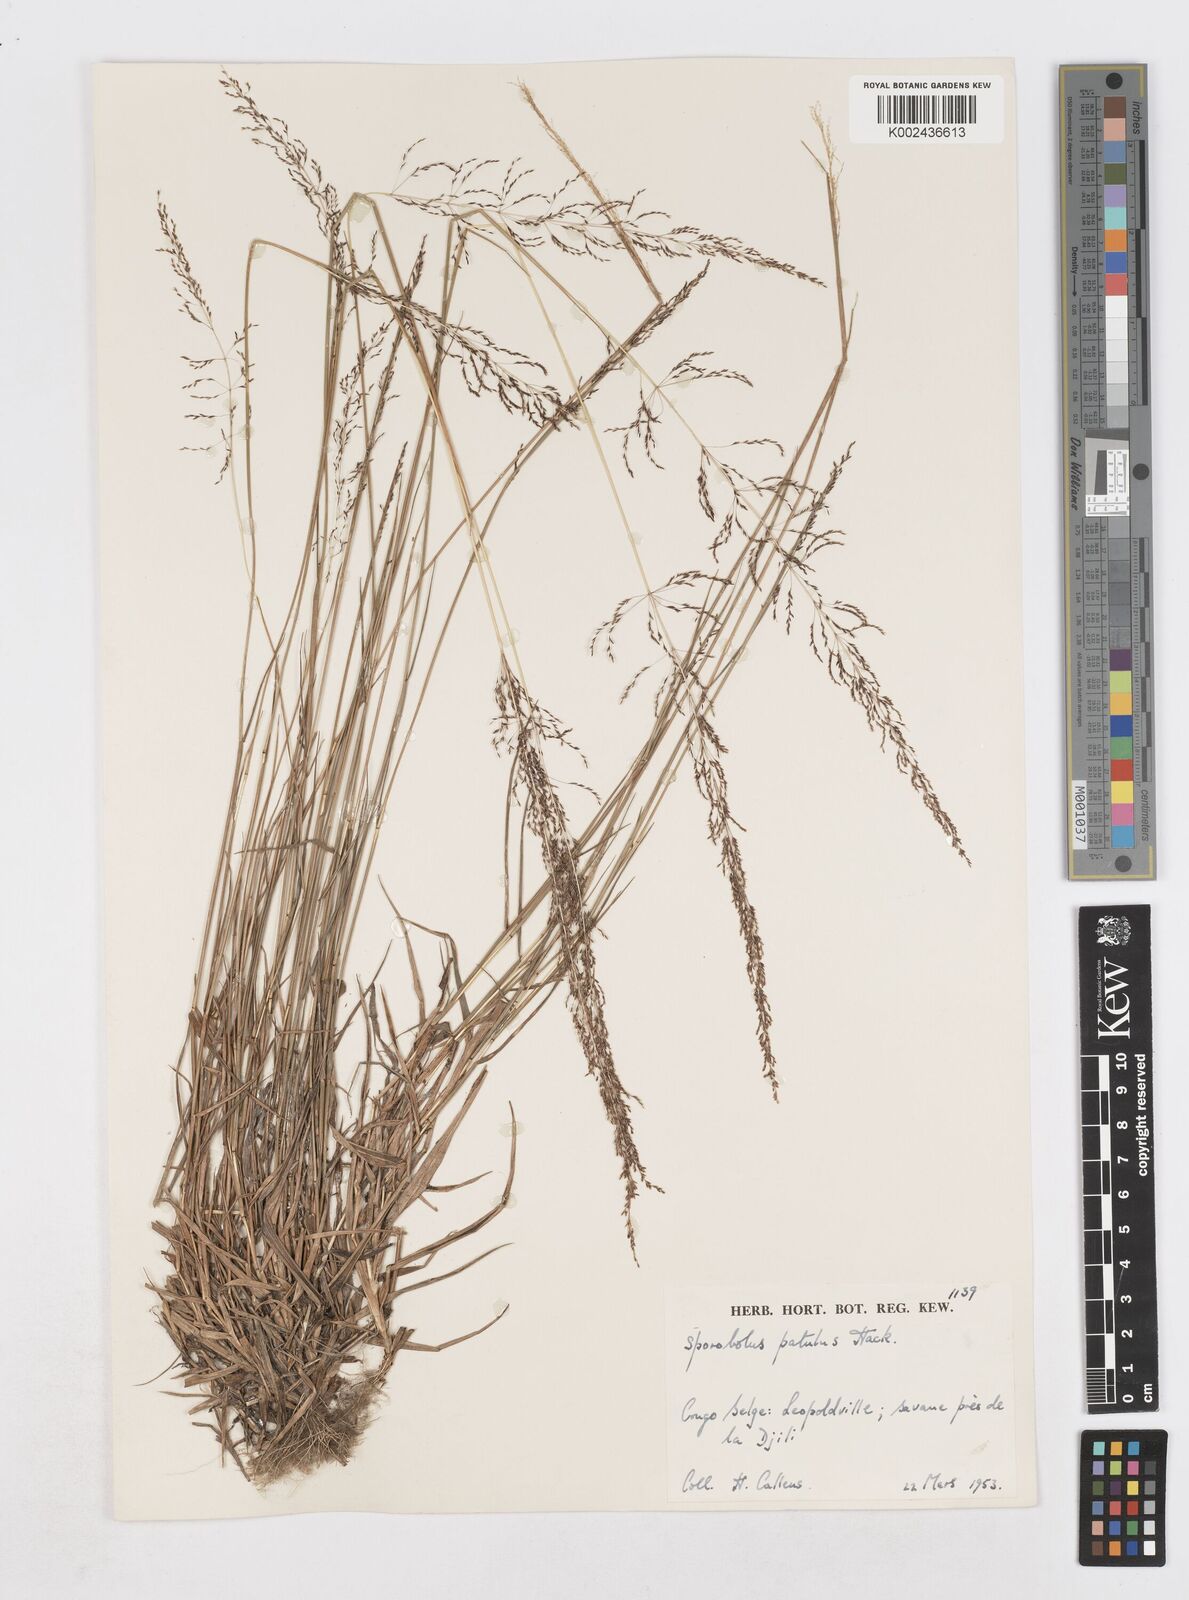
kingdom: Plantae
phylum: Tracheophyta
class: Liliopsida
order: Poales
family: Poaceae
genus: Sporobolus
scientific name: Sporobolus paniculatus
